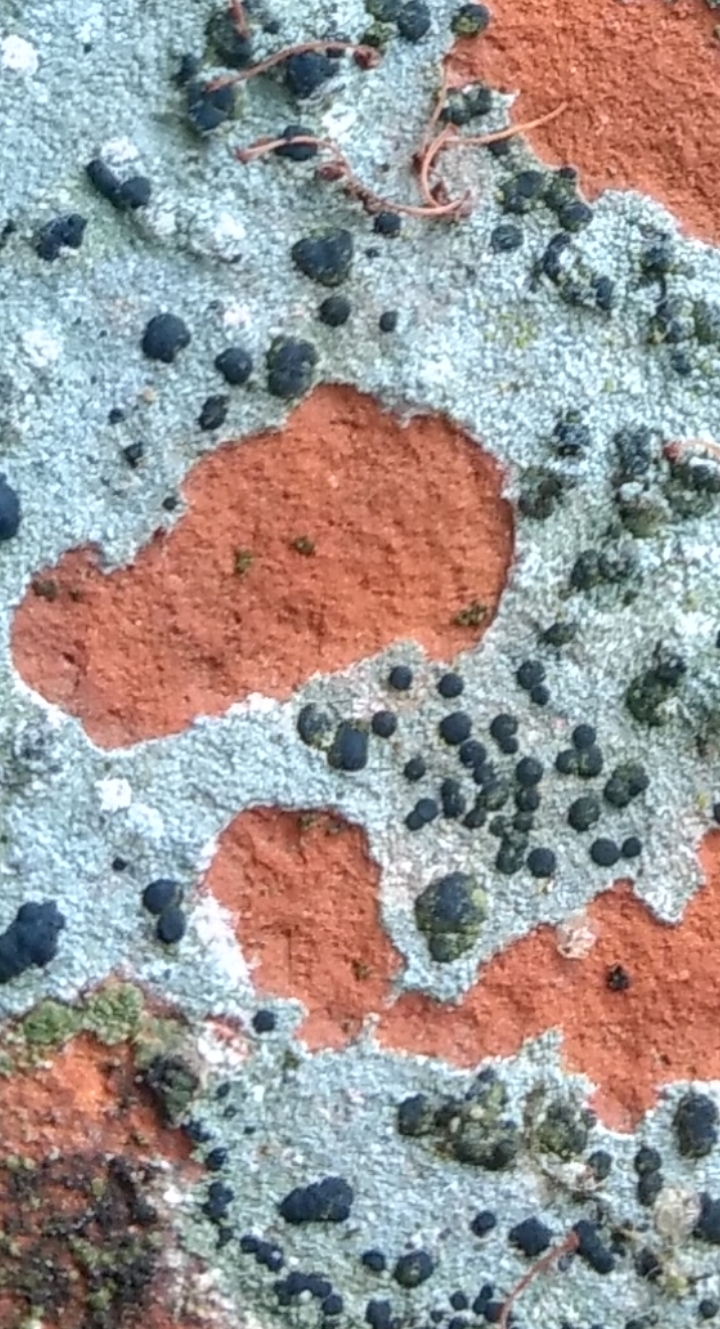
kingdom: Fungi
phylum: Ascomycota
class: Lecanoromycetes
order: Lecanorales
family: Lecanoraceae
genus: Lecidella
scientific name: Lecidella stigmatea
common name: kalkstens-skivelav
